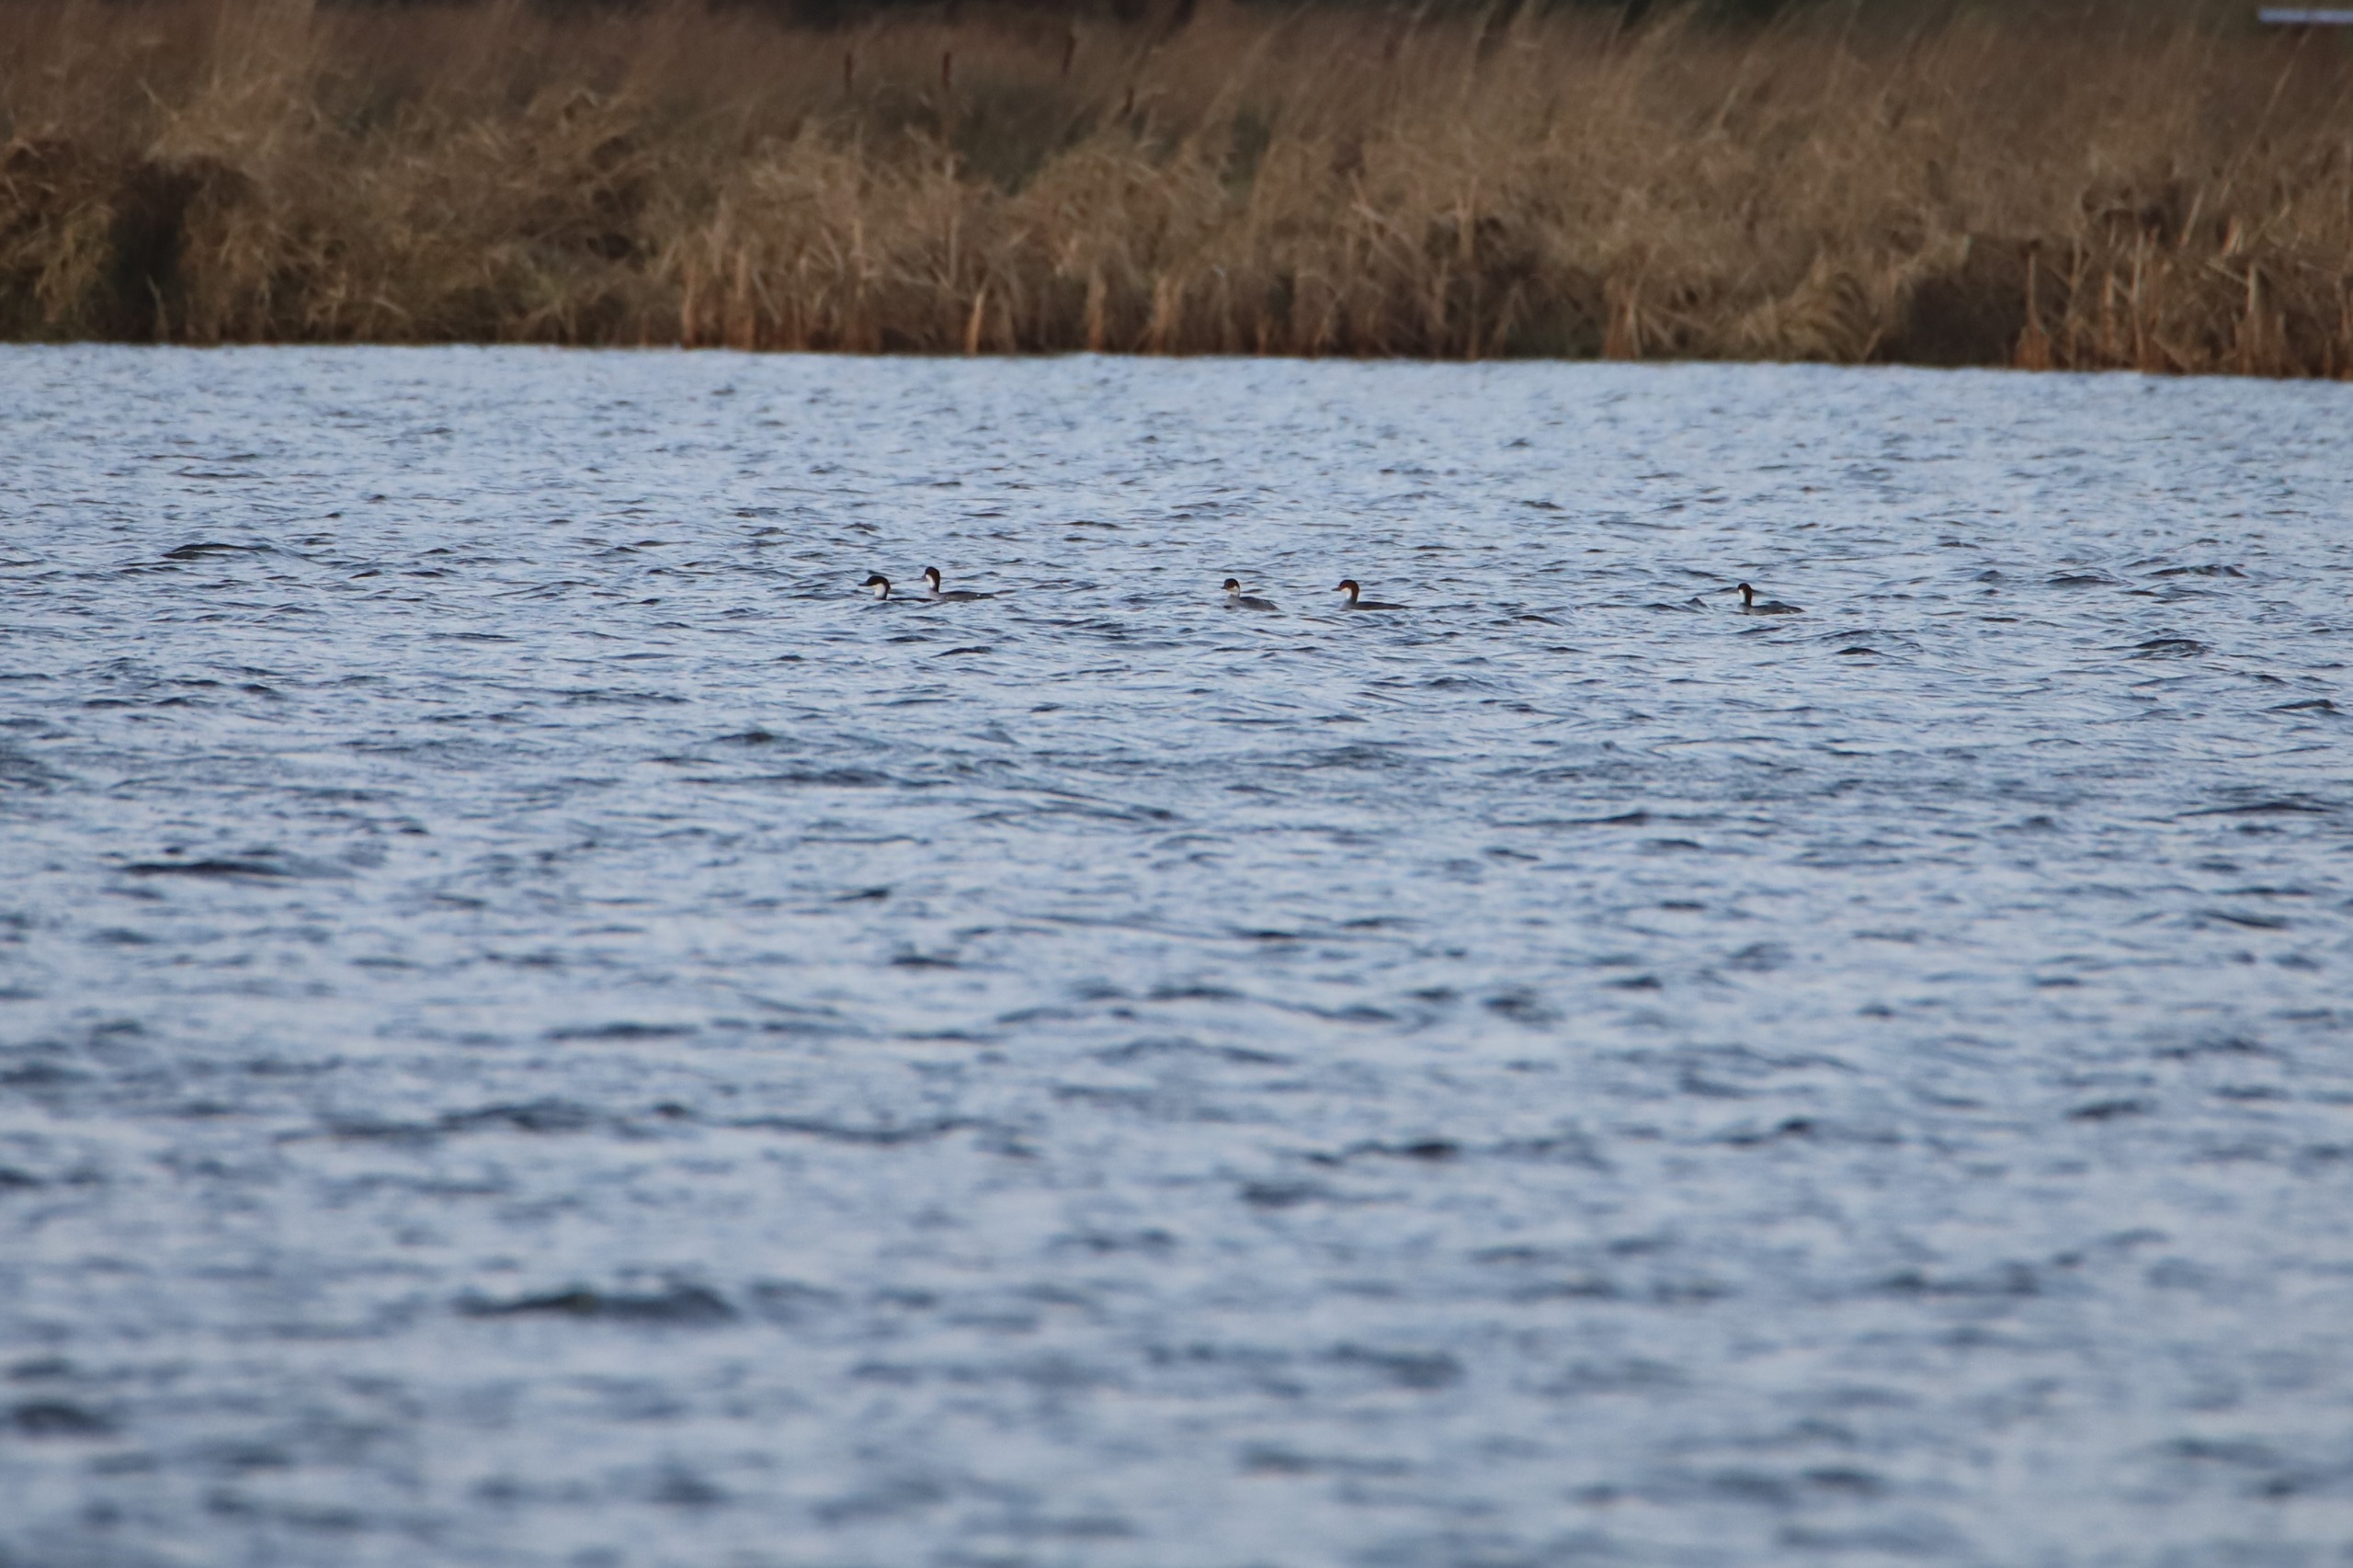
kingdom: Animalia
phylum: Chordata
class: Aves
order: Anseriformes
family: Anatidae
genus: Mergellus
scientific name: Mergellus albellus
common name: Lille skallesluger
